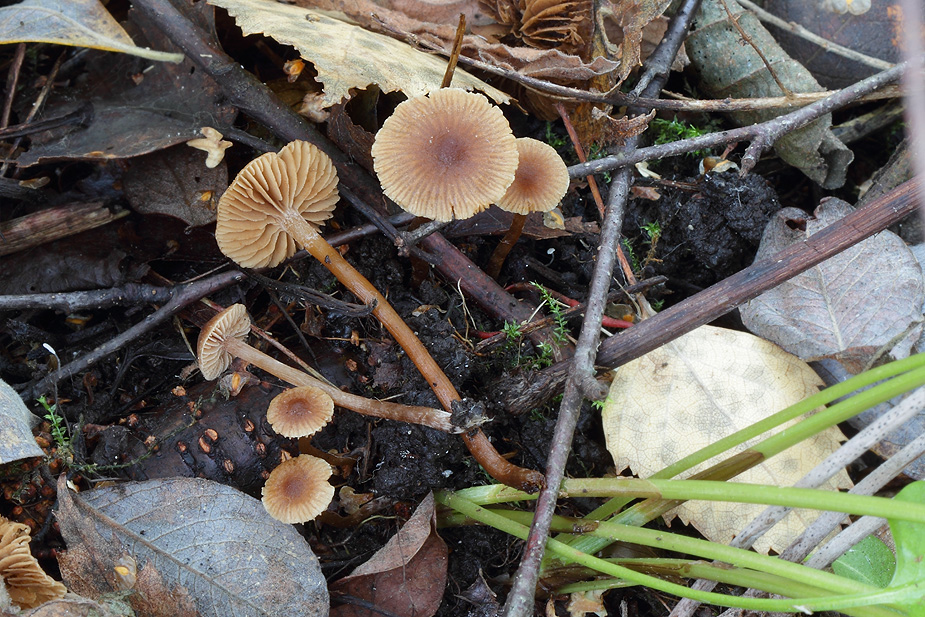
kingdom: Fungi
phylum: Basidiomycota
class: Agaricomycetes
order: Agaricales
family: Hymenogastraceae
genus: Naucoria
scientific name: Naucoria scolecina
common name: mørk elle-knaphat
